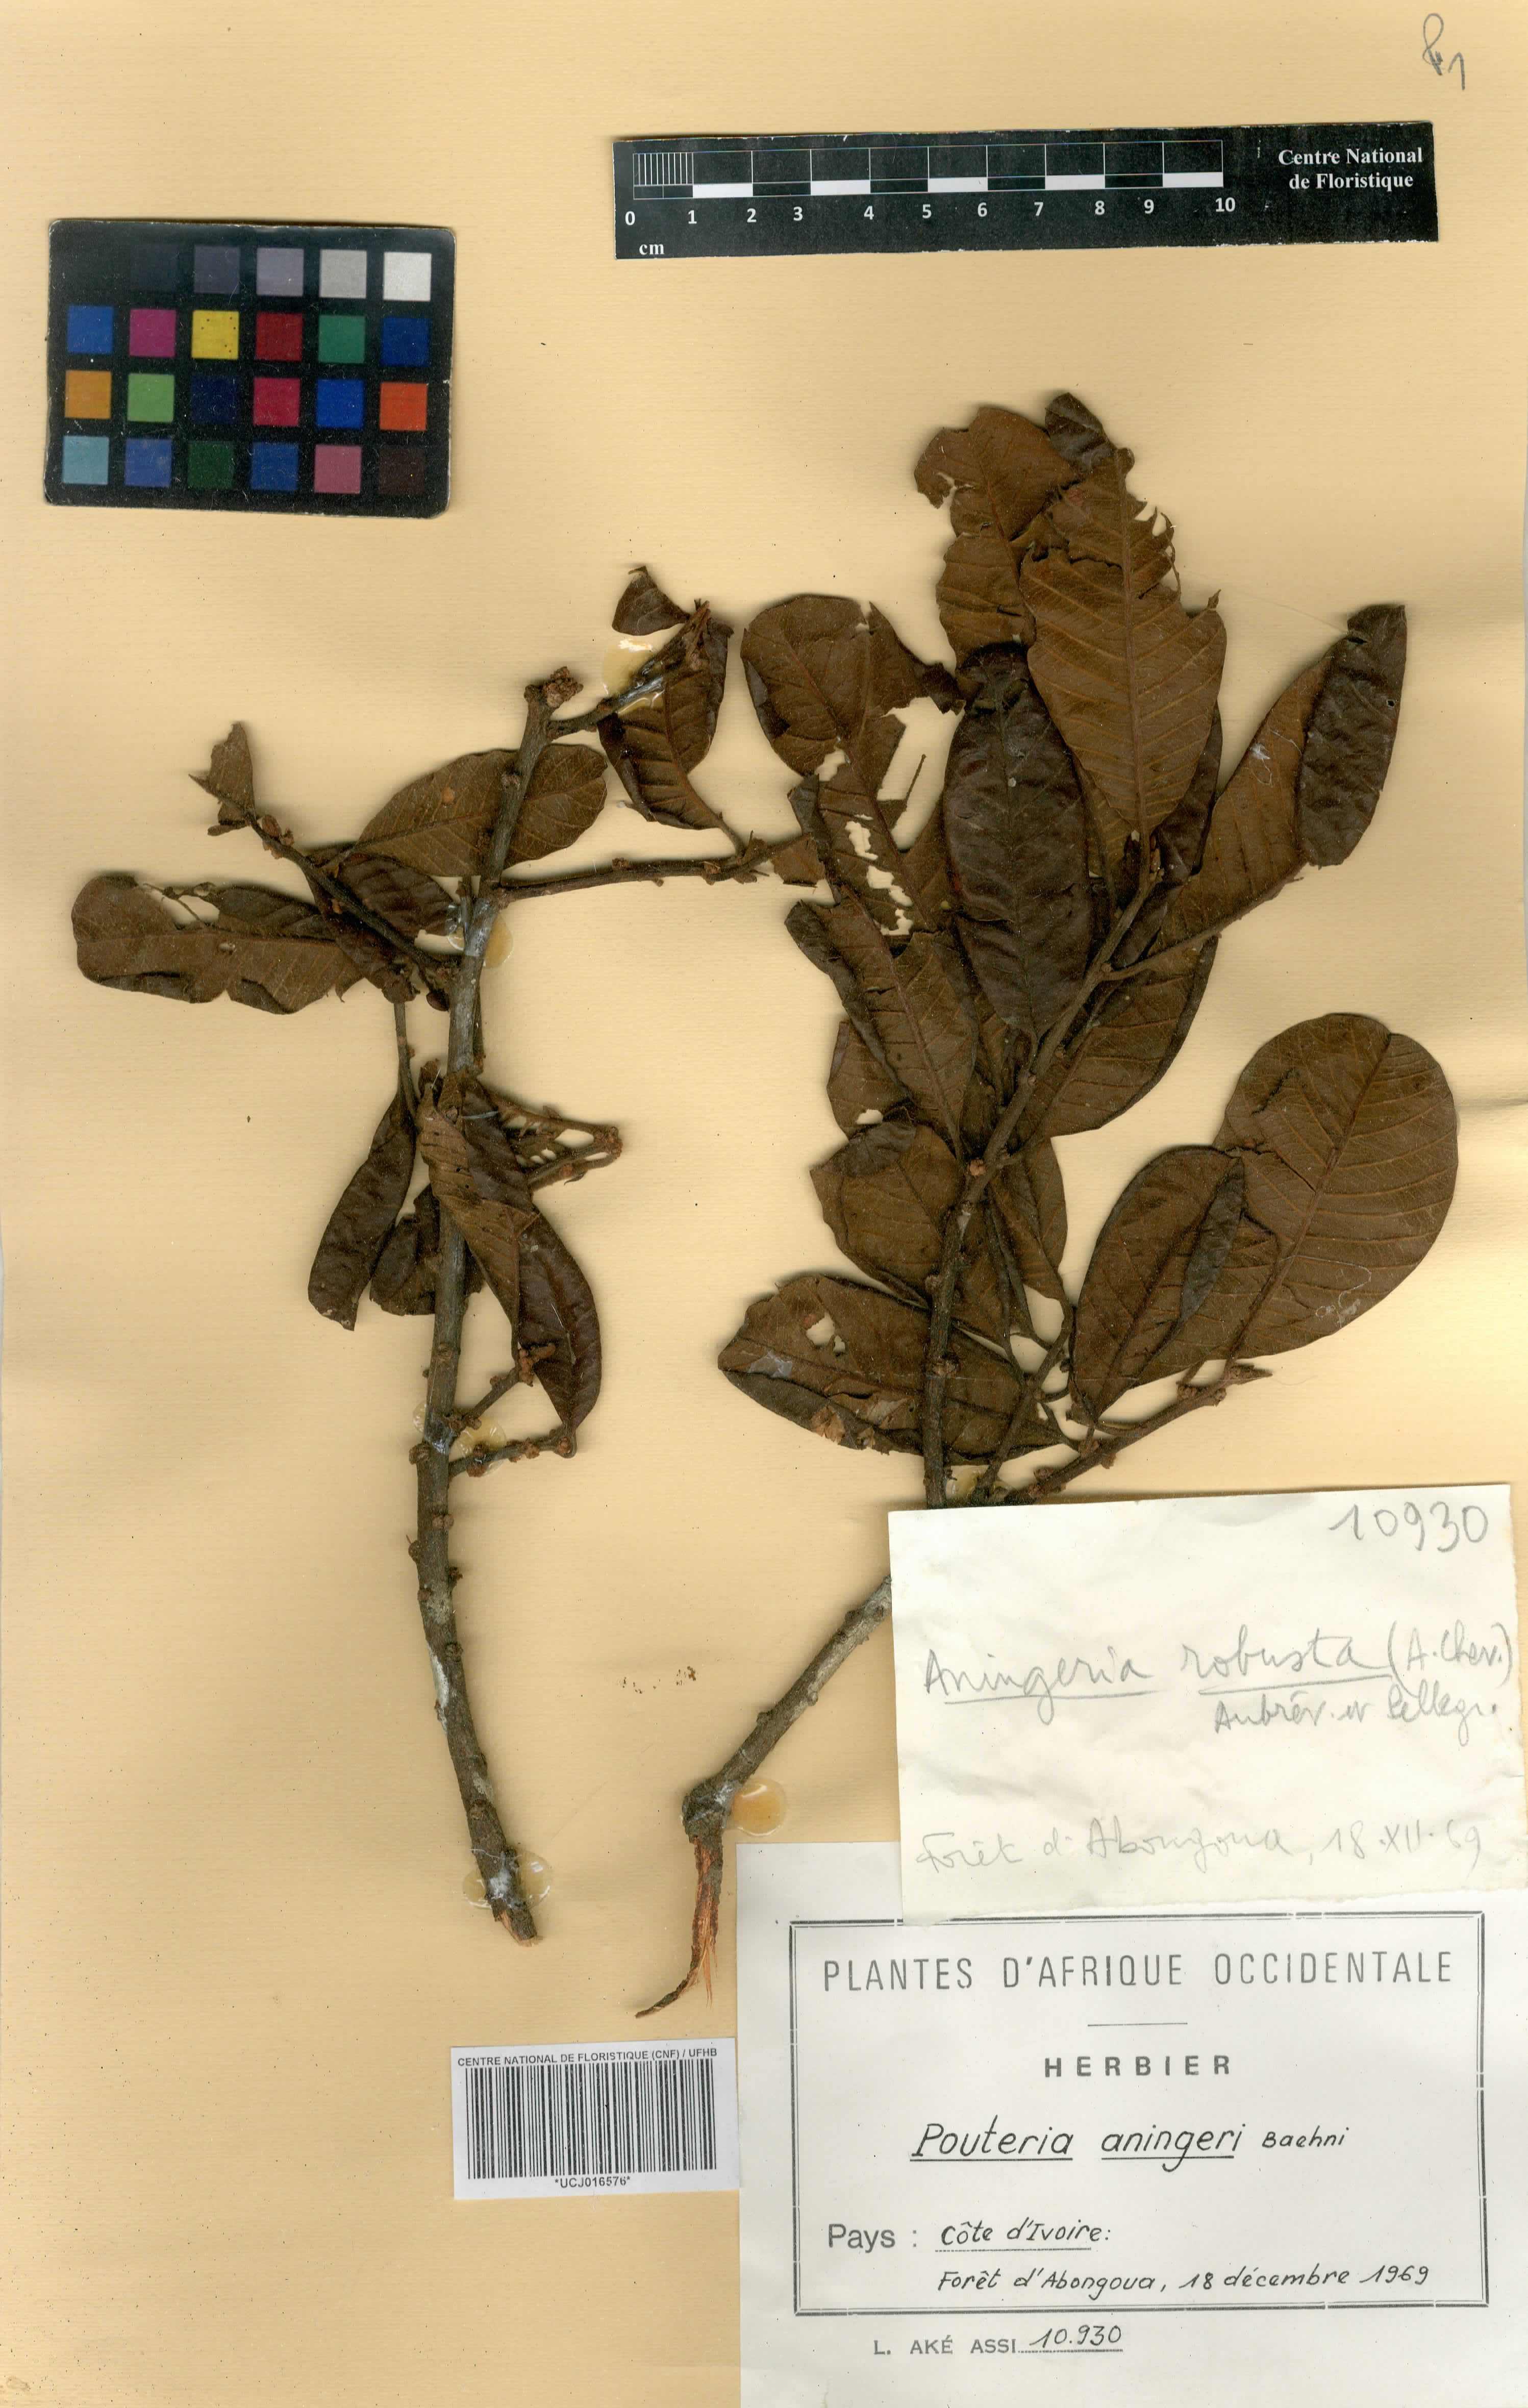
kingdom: Plantae
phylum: Tracheophyta
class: Magnoliopsida
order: Ericales
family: Sapotaceae
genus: Aningeria
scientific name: Aningeria pierrei
